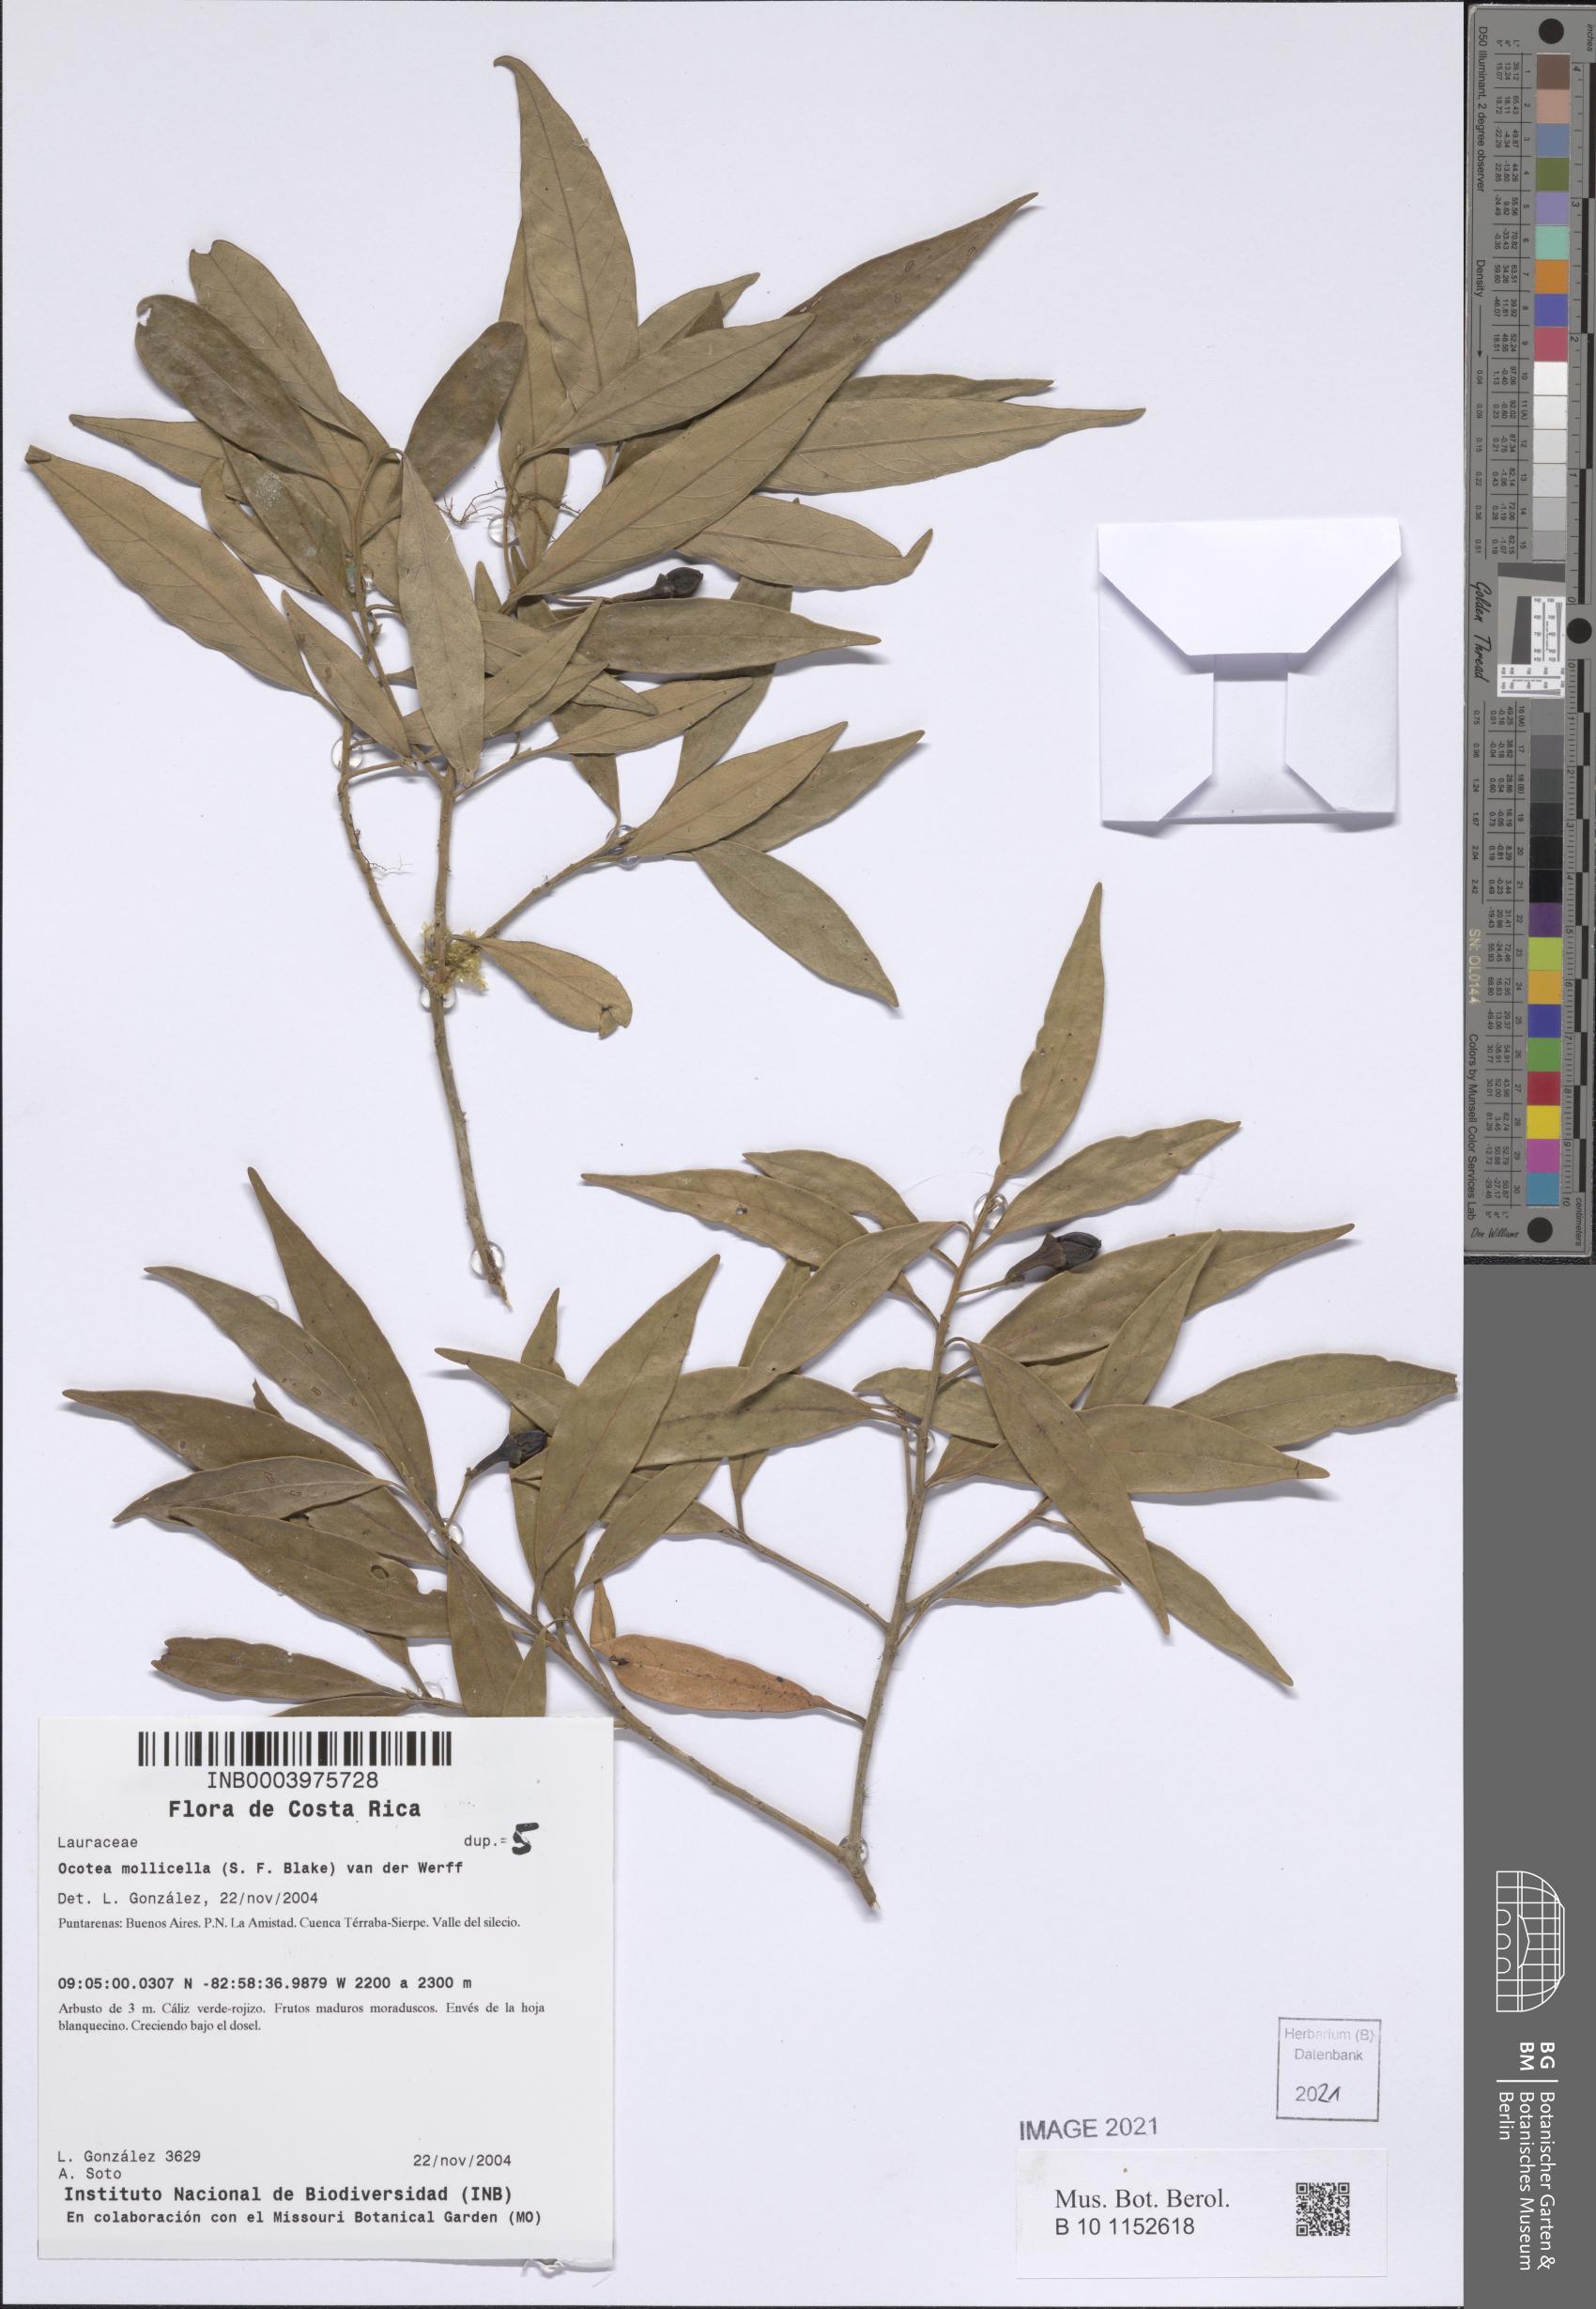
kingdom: Plantae
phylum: Tracheophyta
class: Magnoliopsida
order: Laurales
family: Lauraceae
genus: Ocotea
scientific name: Ocotea mollicella
